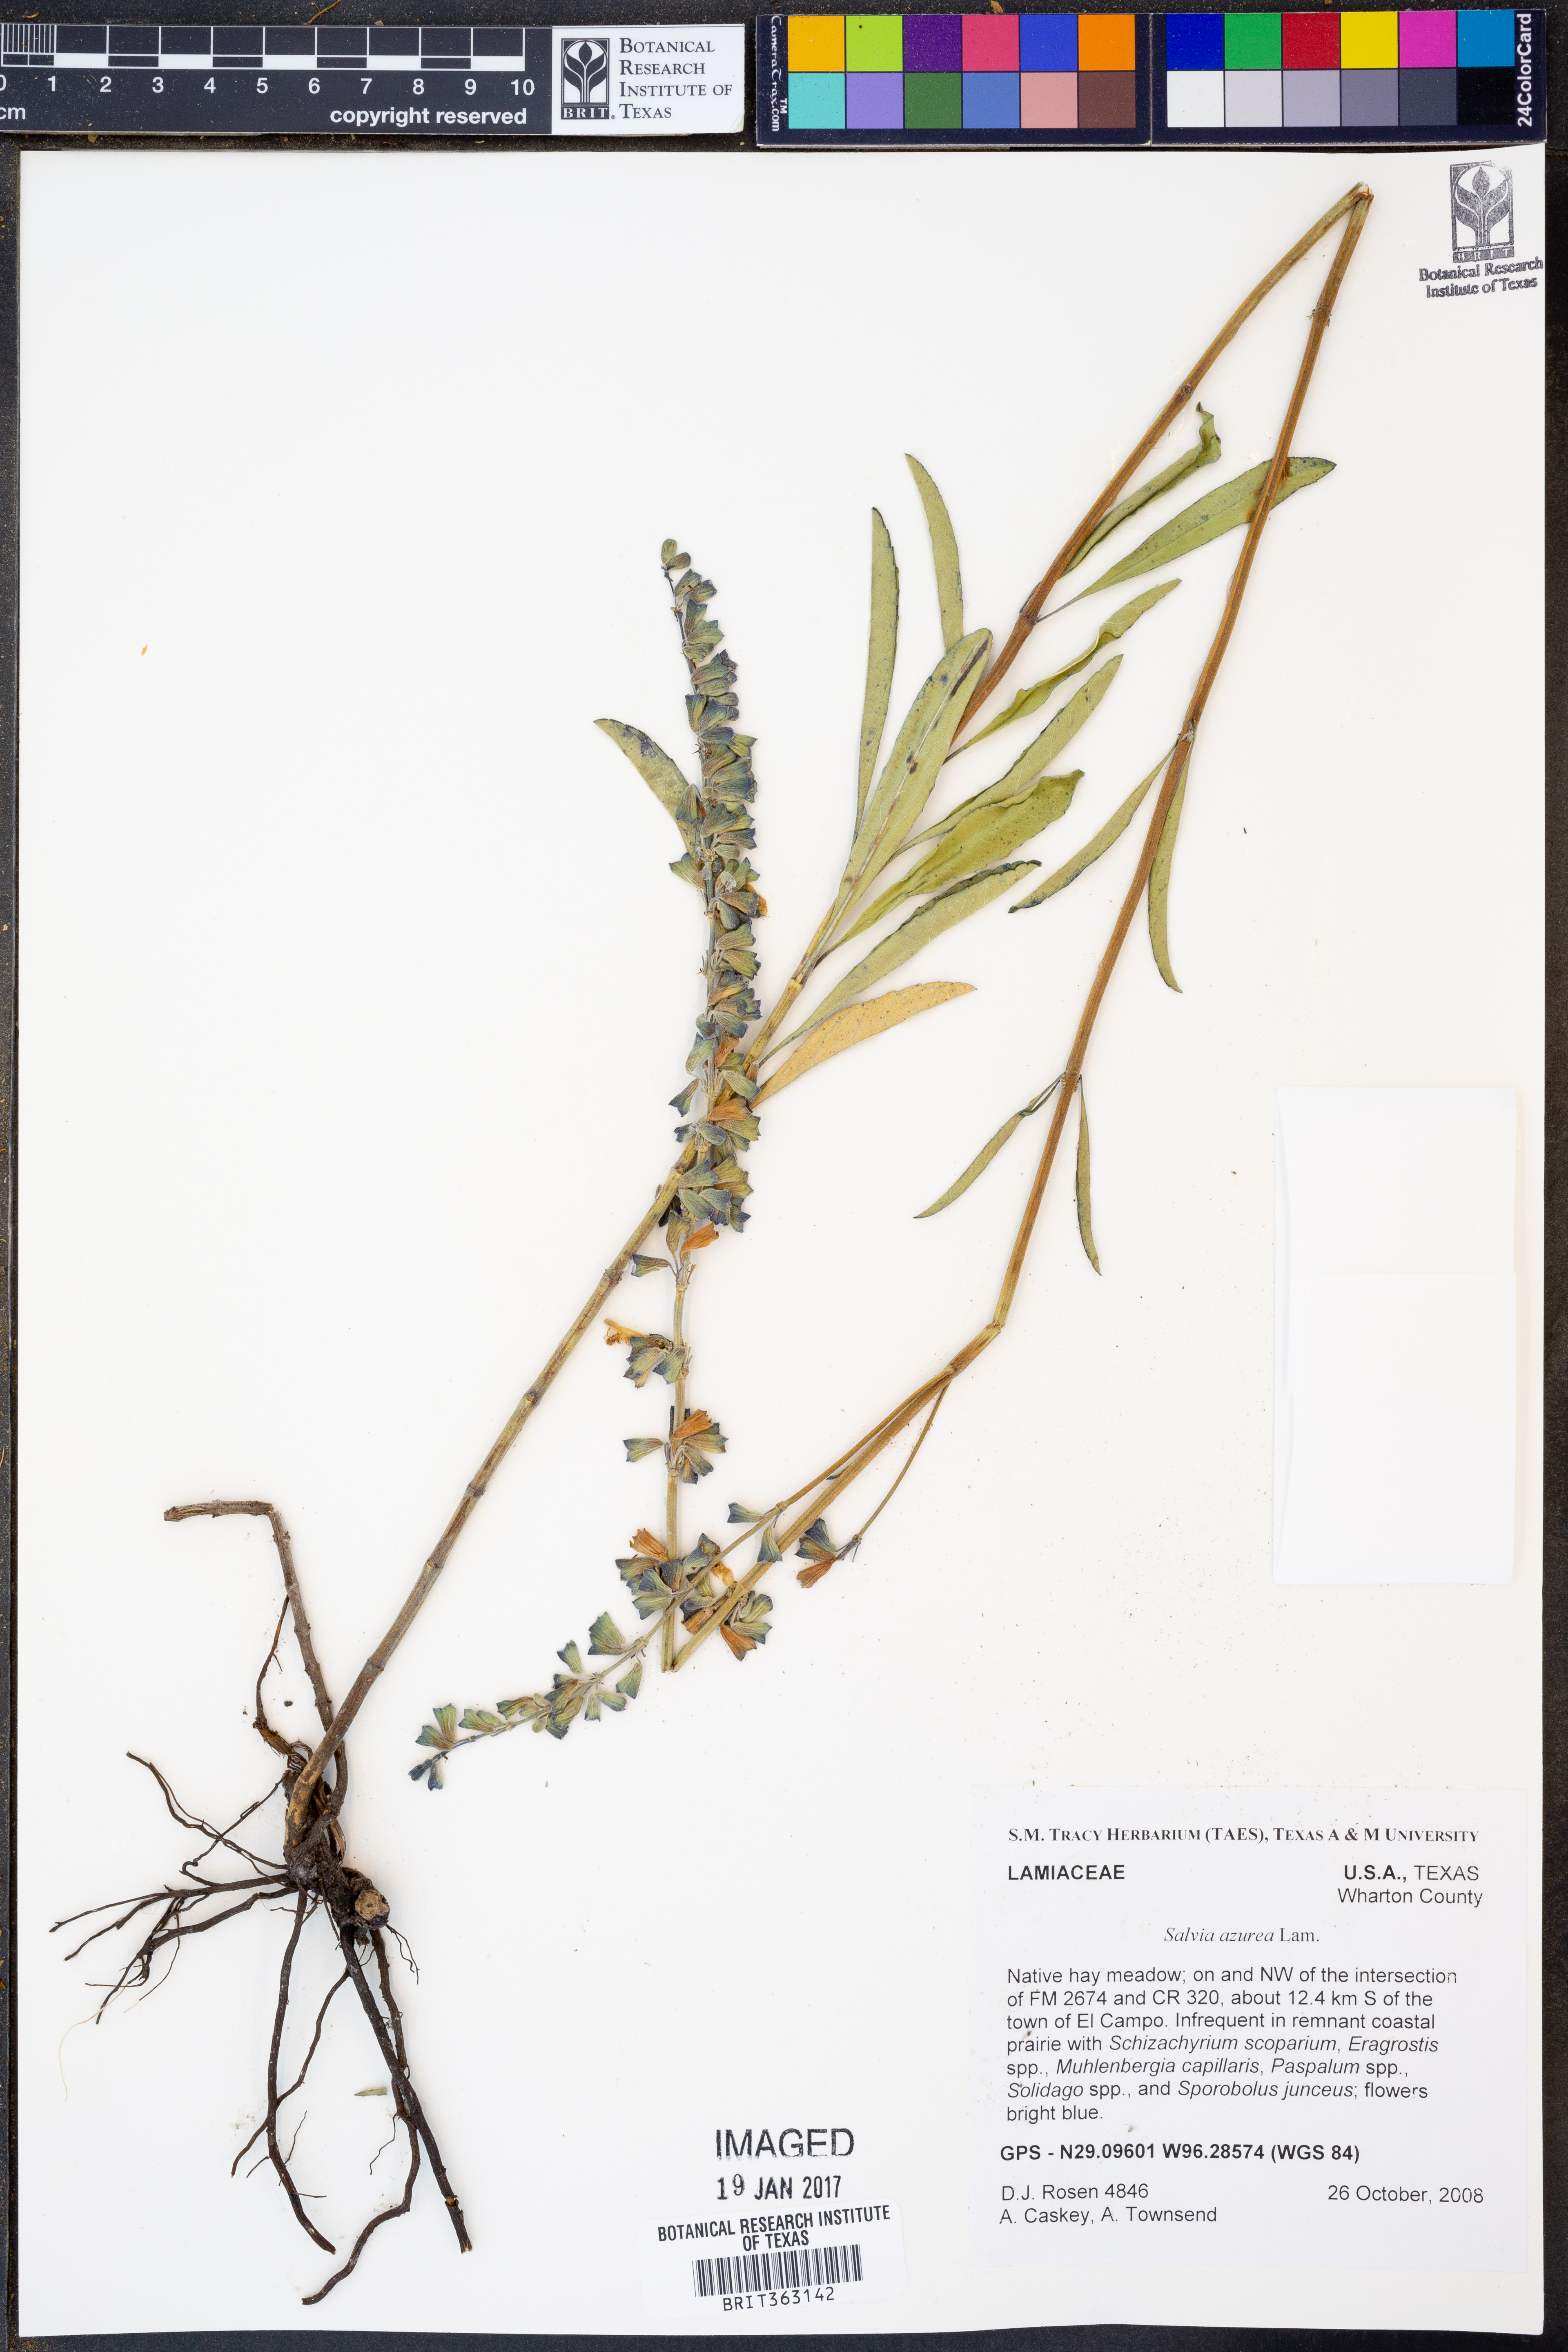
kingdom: Plantae
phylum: Tracheophyta
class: Magnoliopsida
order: Lamiales
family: Lamiaceae
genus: Salvia
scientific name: Salvia azurea
